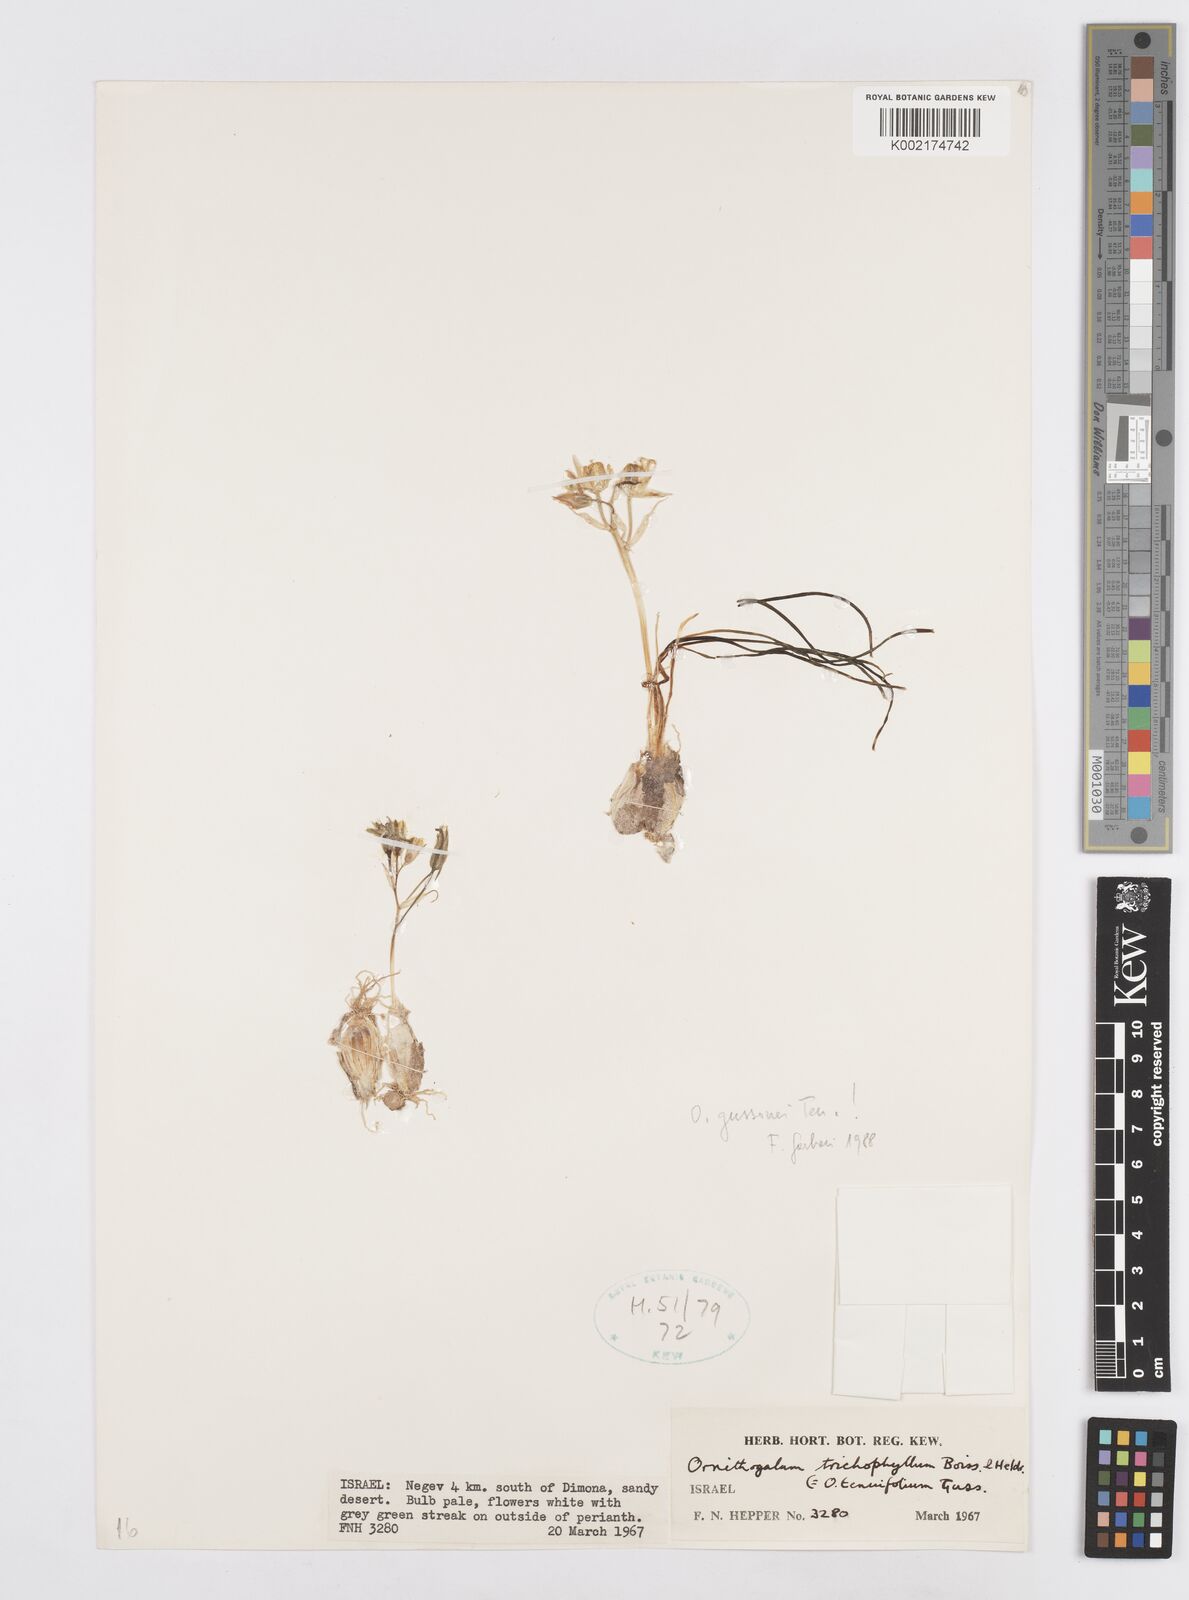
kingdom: Plantae
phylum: Tracheophyta
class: Liliopsida
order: Asparagales
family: Asparagaceae
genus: Ornithogalum
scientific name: Ornithogalum gussonei
